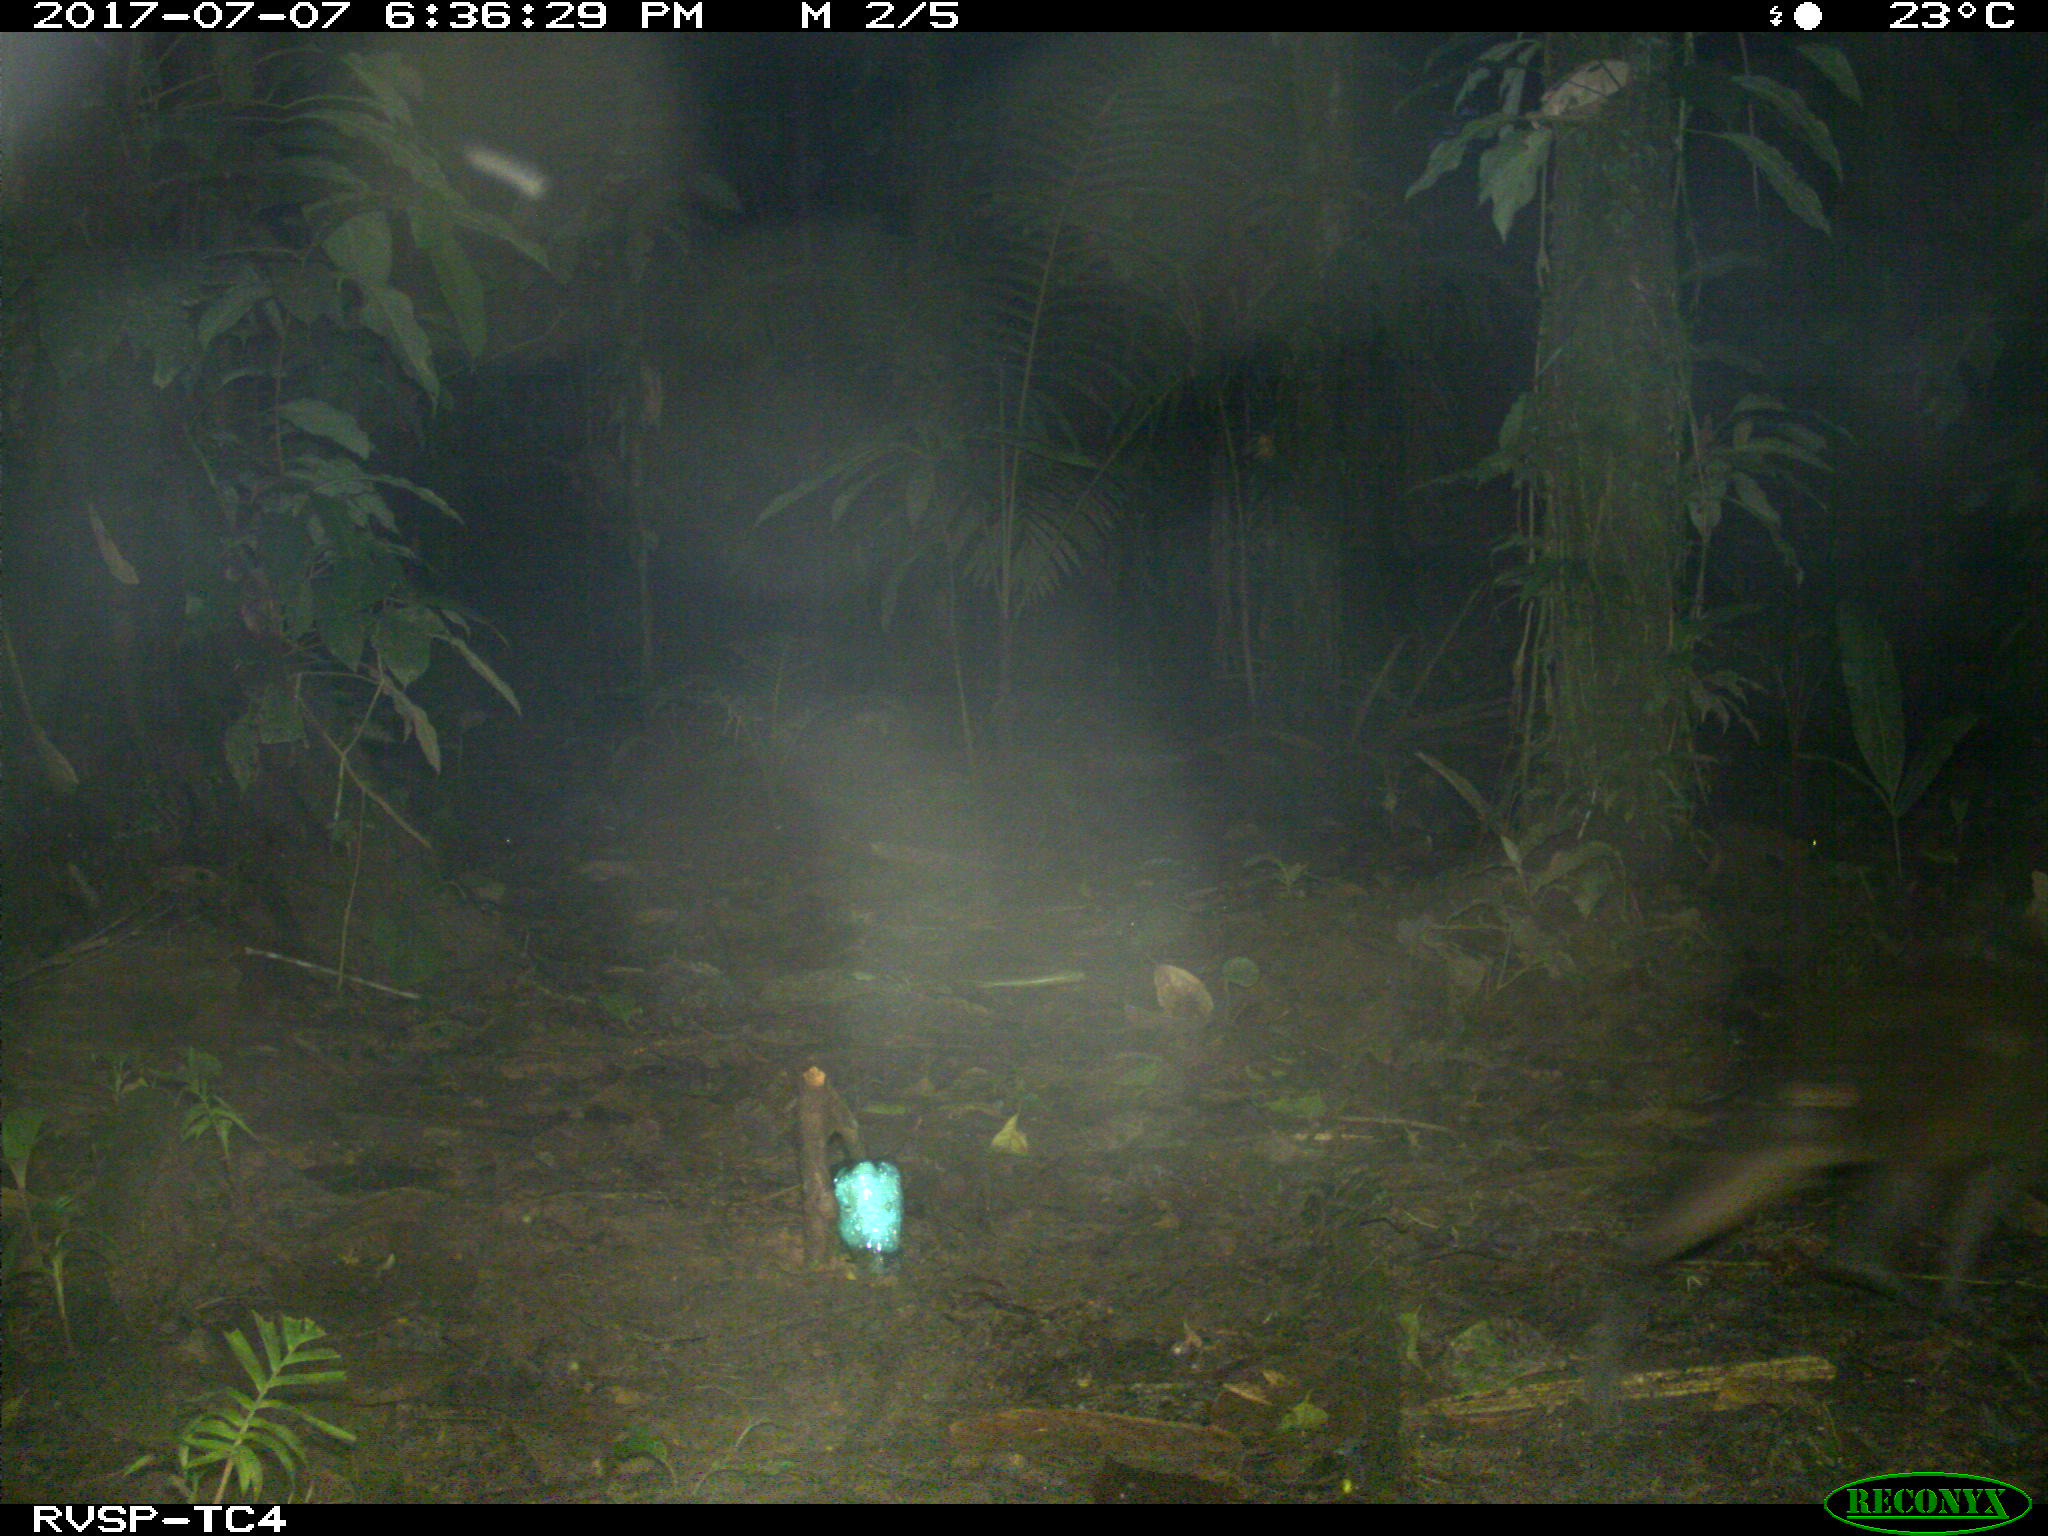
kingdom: Animalia
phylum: Chordata
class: Mammalia
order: Rodentia
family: Dasyproctidae
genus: Dasyprocta
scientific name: Dasyprocta punctata
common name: Central american agouti
